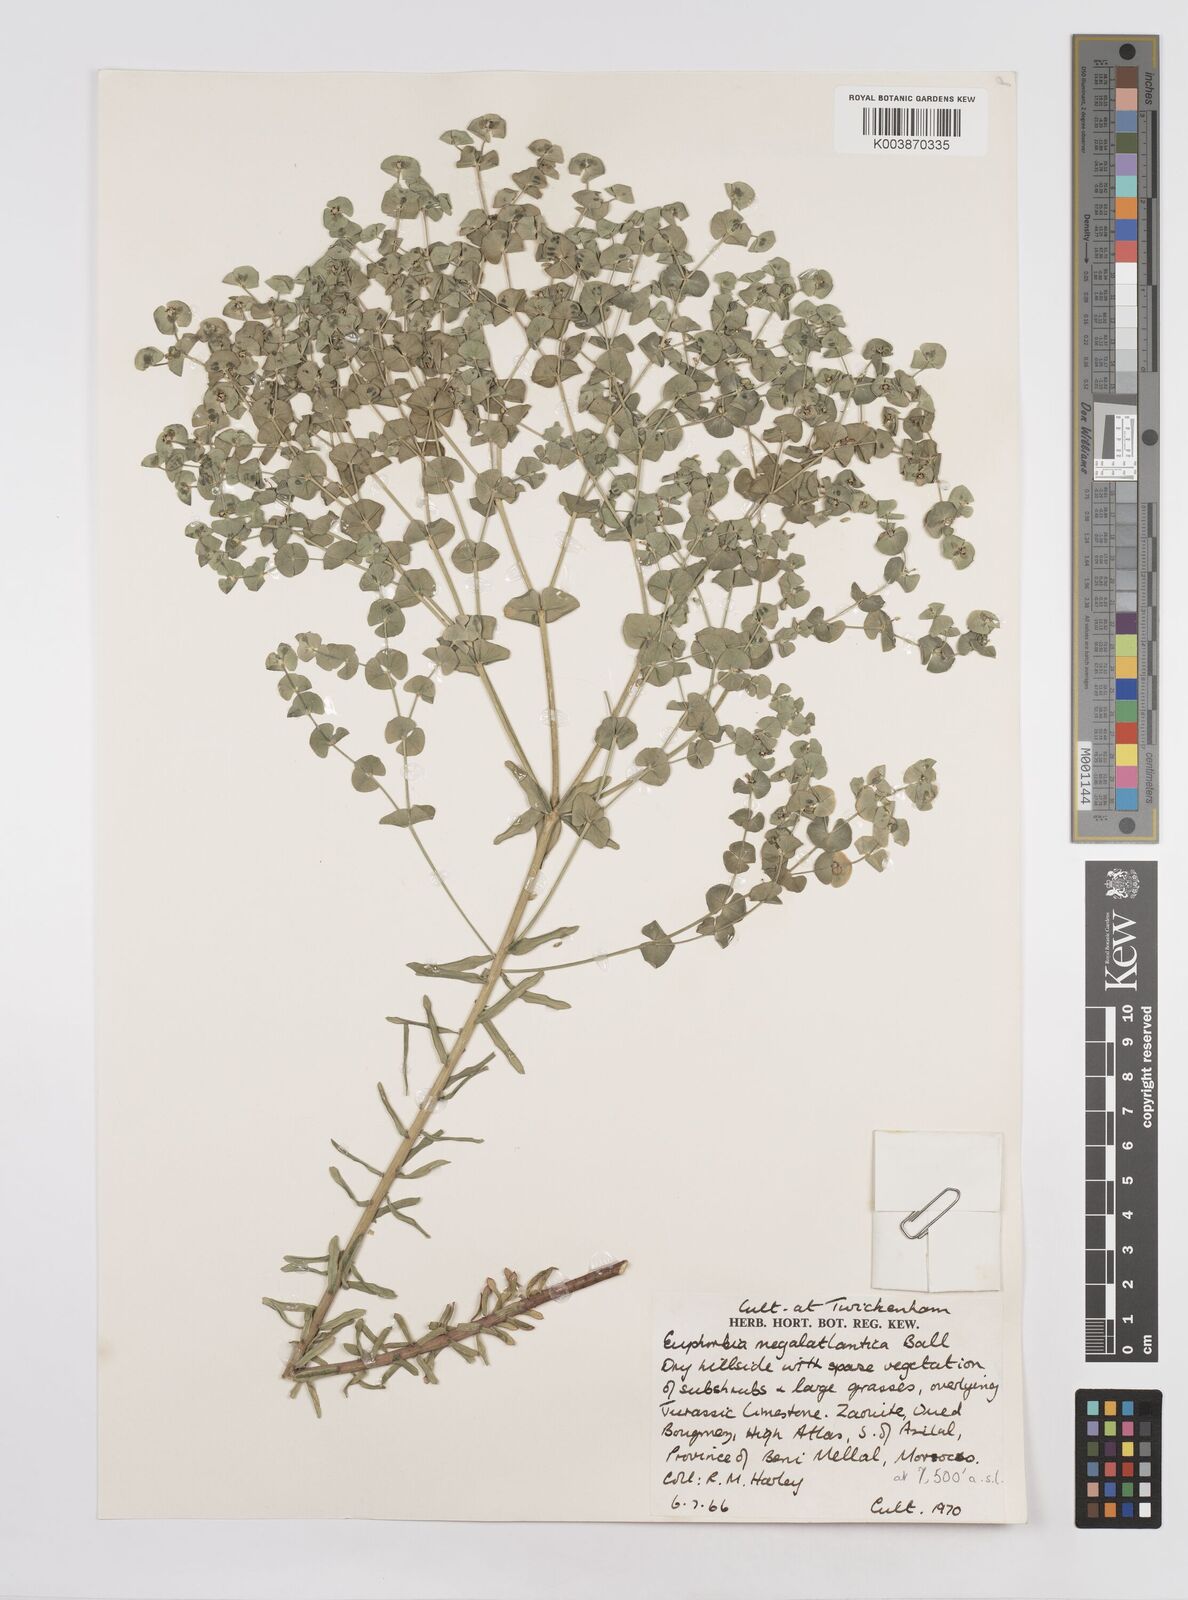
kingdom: Plantae
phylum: Tracheophyta
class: Magnoliopsida
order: Malpighiales
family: Euphorbiaceae
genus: Euphorbia
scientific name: Euphorbia megalatlantica
